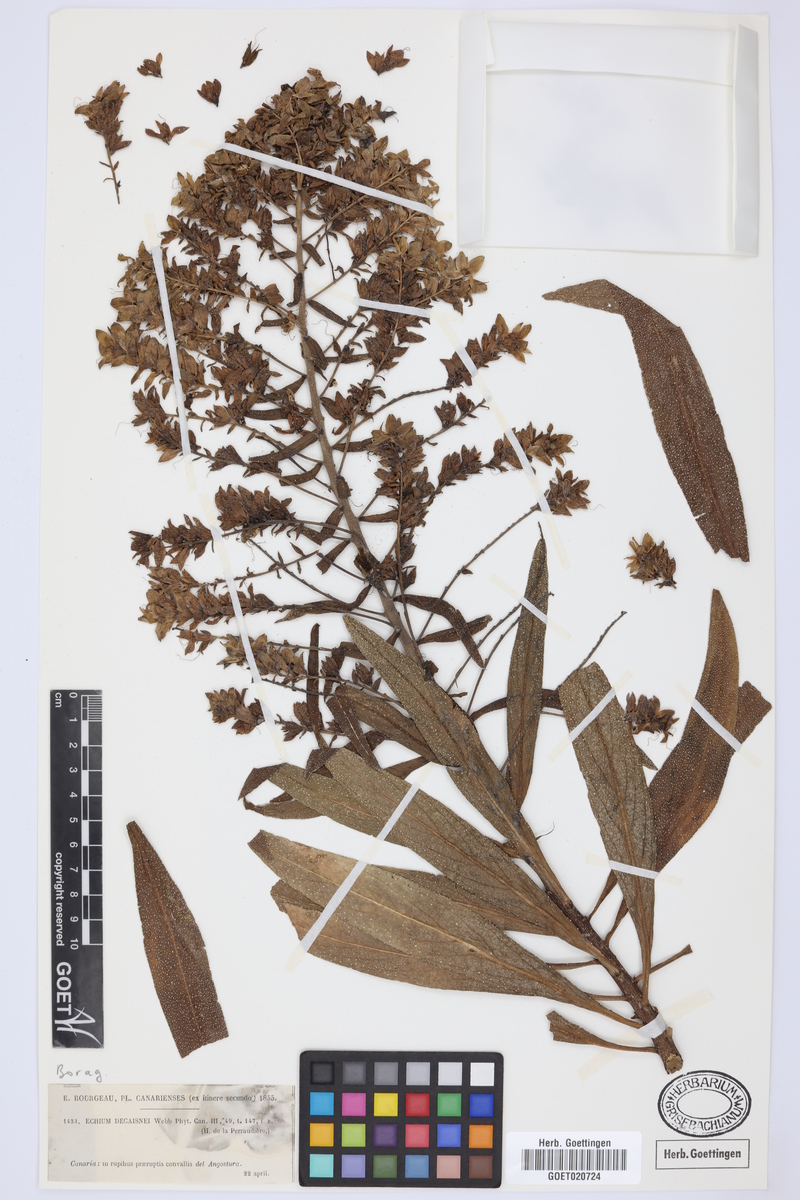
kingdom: Plantae
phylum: Tracheophyta
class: Magnoliopsida
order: Boraginales
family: Boraginaceae
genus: Echium
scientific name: Echium decaisnei
